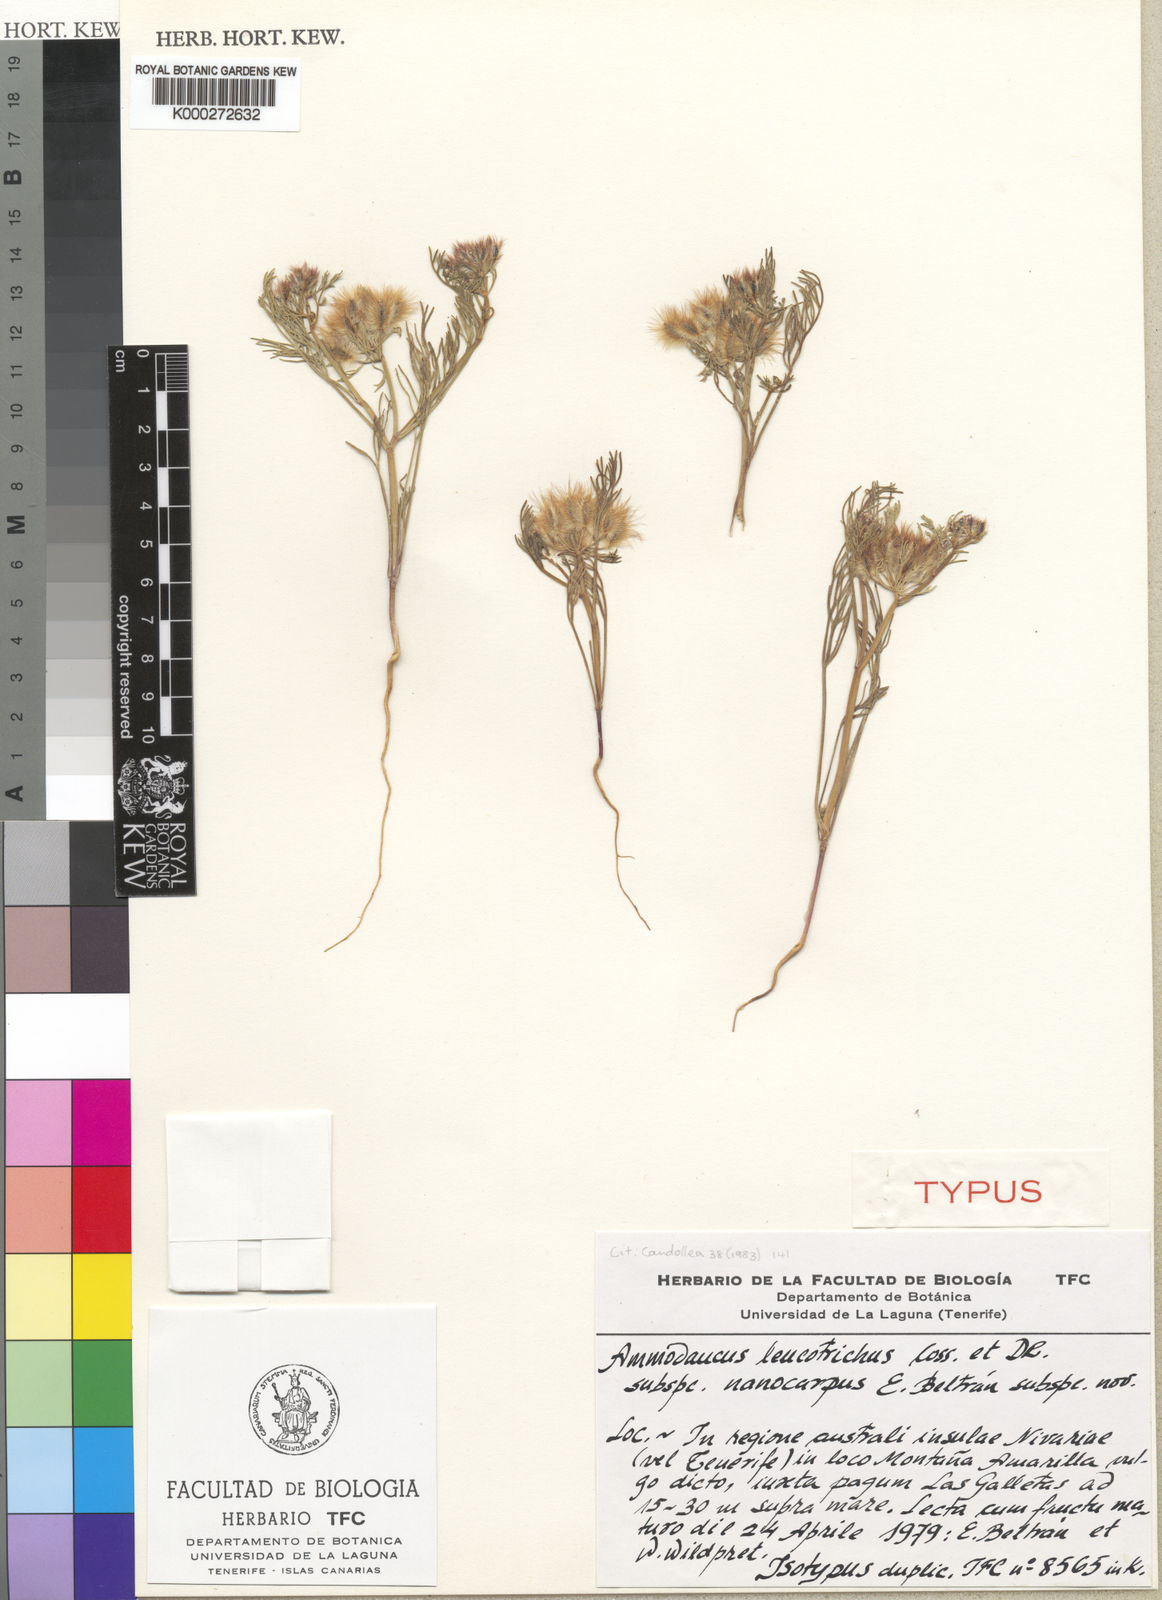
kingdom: Plantae
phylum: Tracheophyta
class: Magnoliopsida
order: Apiales
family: Apiaceae
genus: Ammodaucus
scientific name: Ammodaucus leucotrichus
